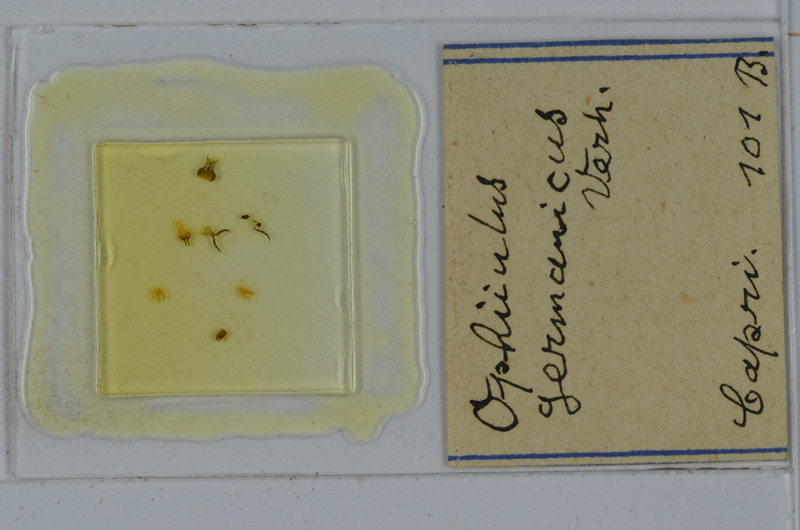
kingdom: Animalia
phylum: Arthropoda
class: Diplopoda
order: Julida
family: Julidae
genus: Ophyiulus
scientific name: Ophyiulus germanicus
